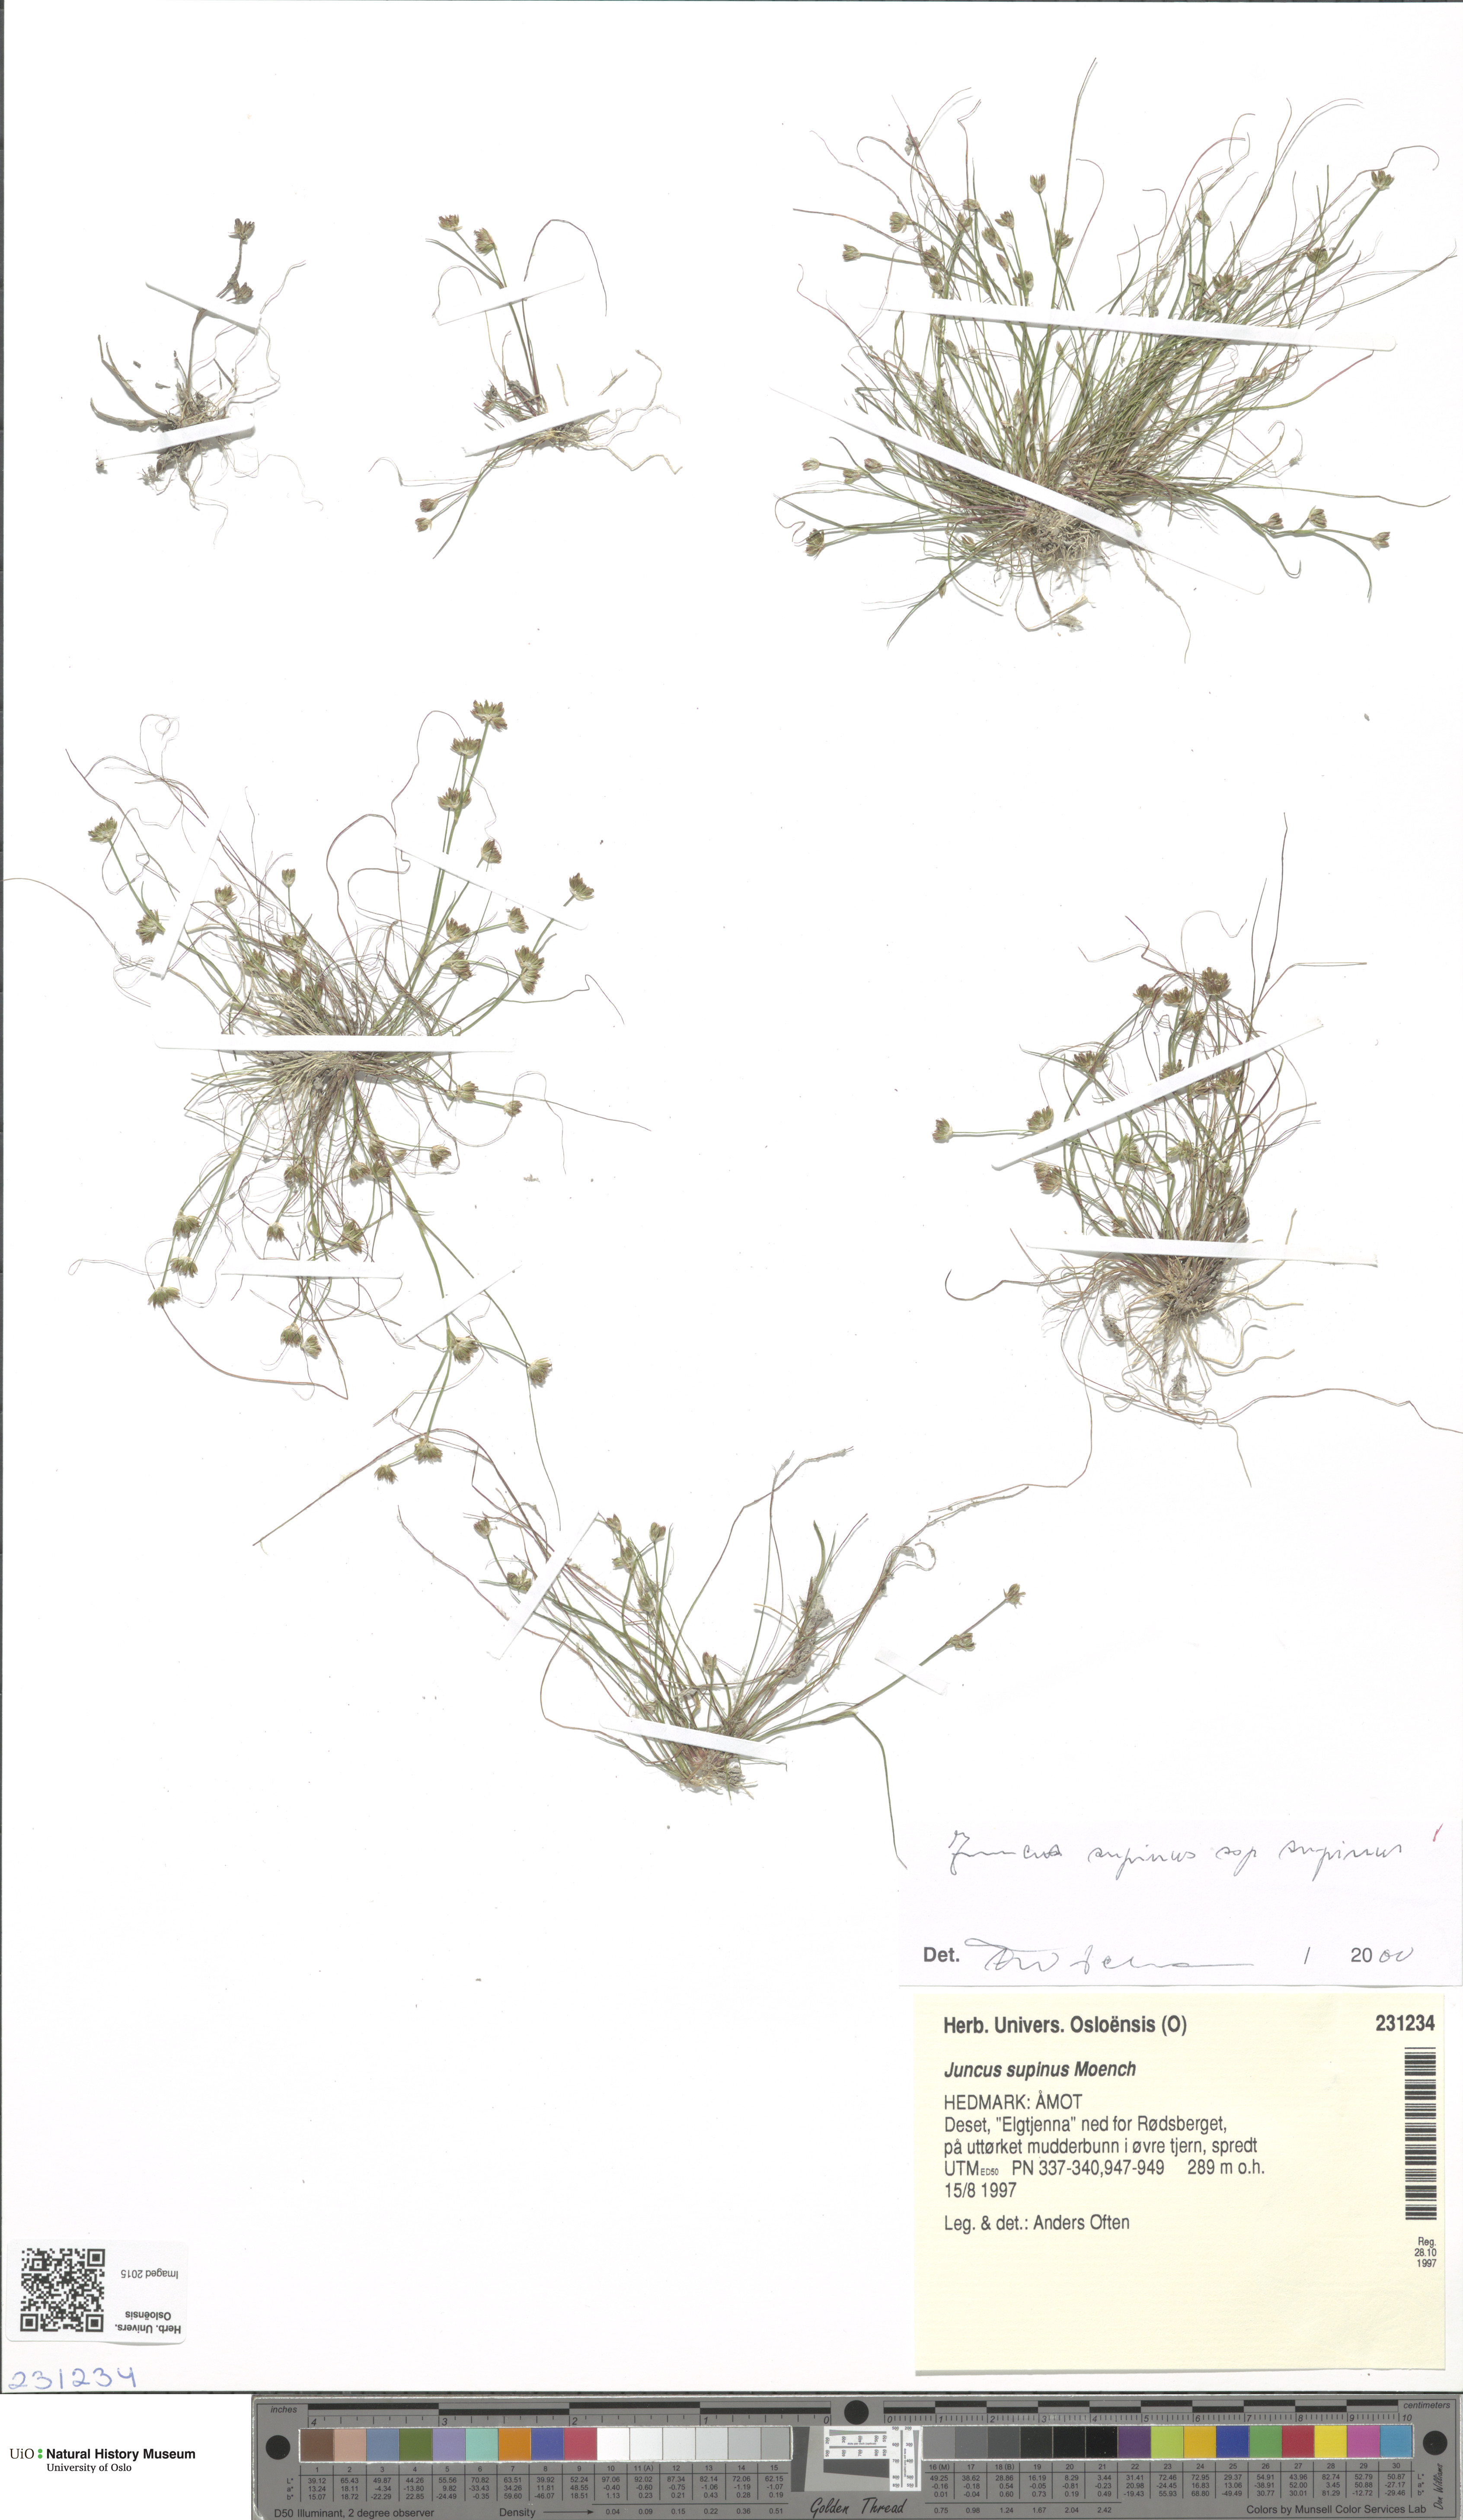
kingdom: Plantae
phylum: Tracheophyta
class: Liliopsida
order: Poales
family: Juncaceae
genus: Juncus
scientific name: Juncus bulbosus
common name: Bulbous rush
